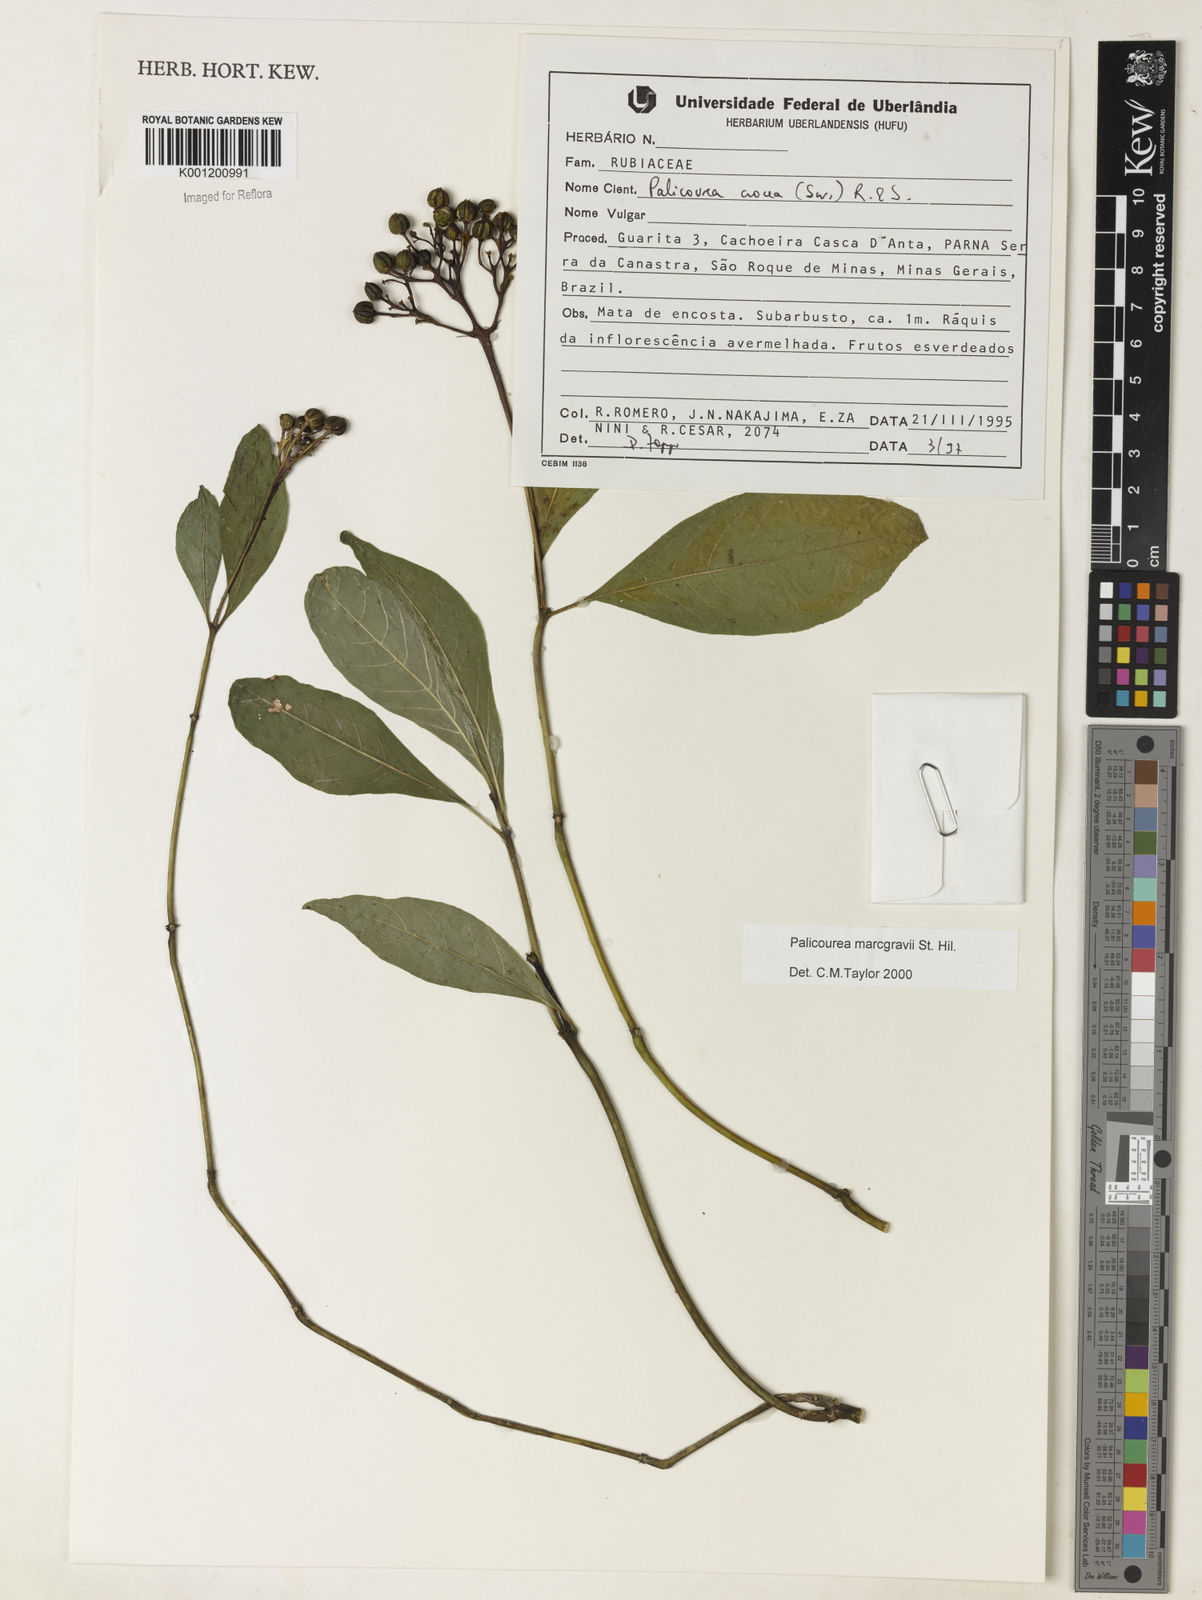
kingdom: Plantae
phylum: Tracheophyta
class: Magnoliopsida
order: Gentianales
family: Rubiaceae
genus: Palicourea
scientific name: Palicourea marcgravii
